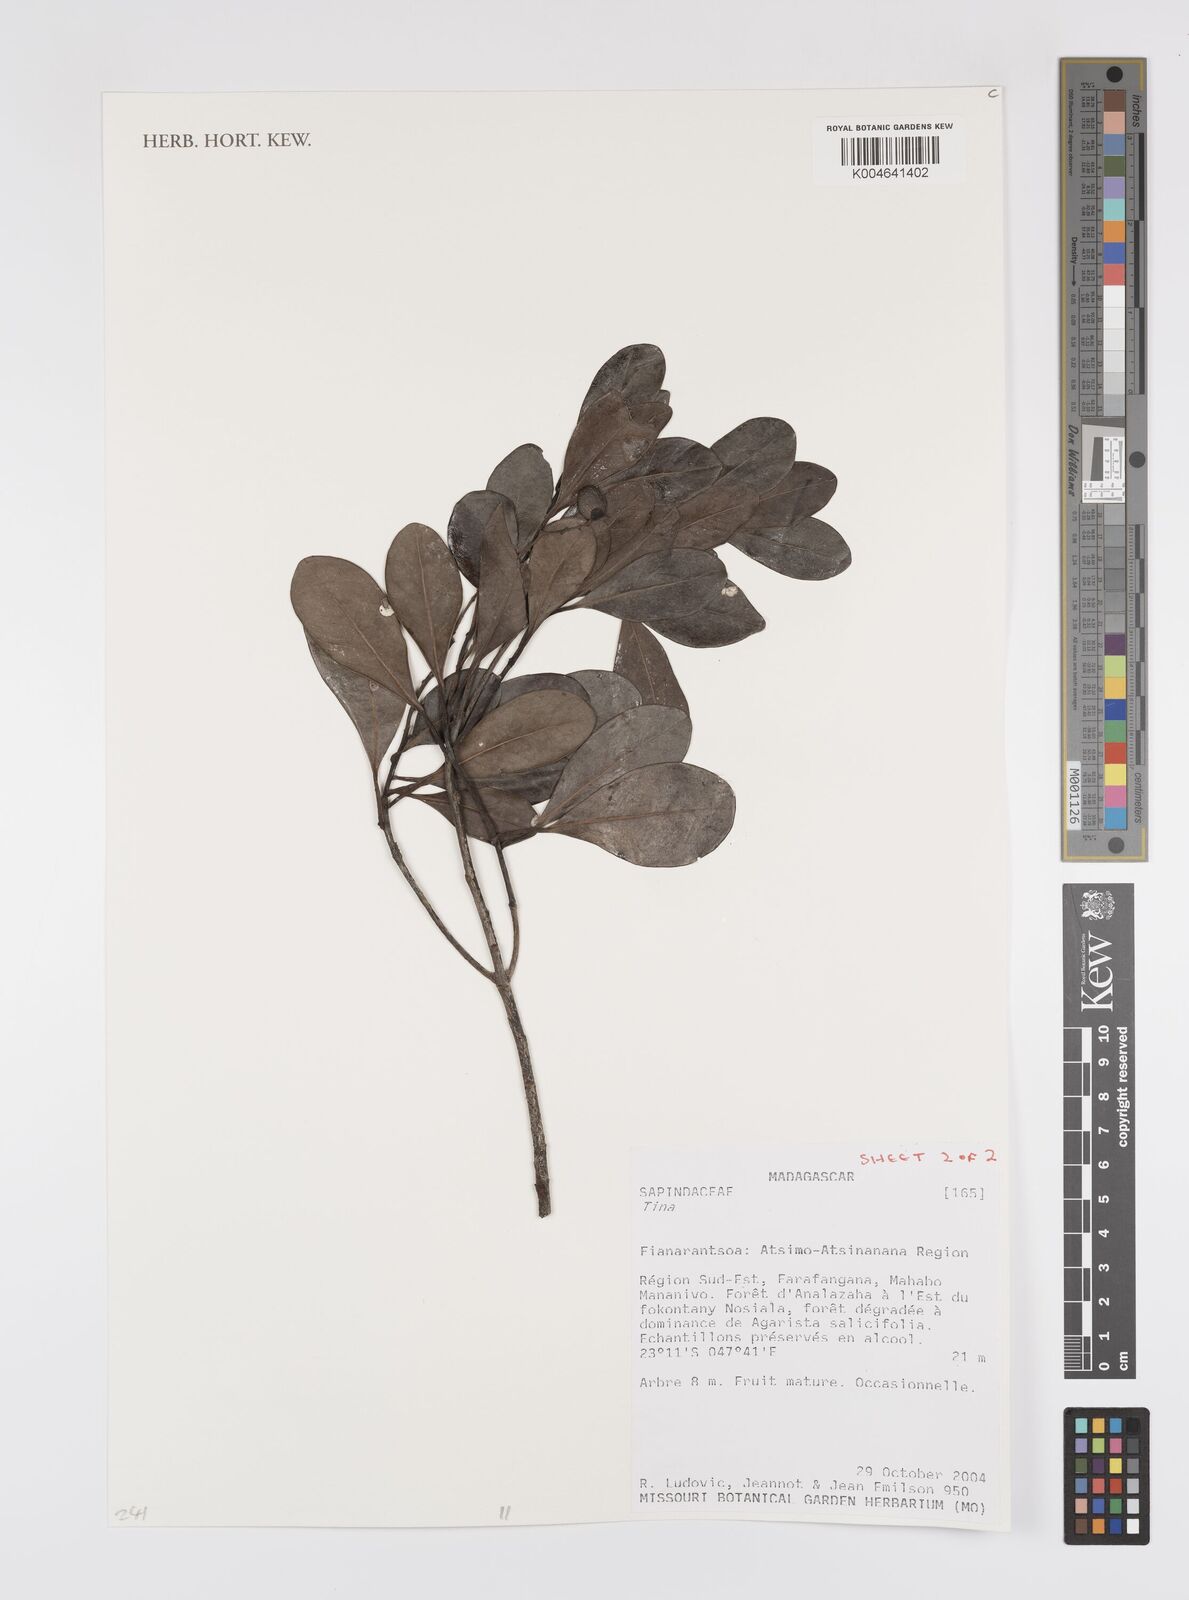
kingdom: Plantae
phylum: Tracheophyta
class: Magnoliopsida
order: Sapindales
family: Sapindaceae
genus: Tina
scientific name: Tina
